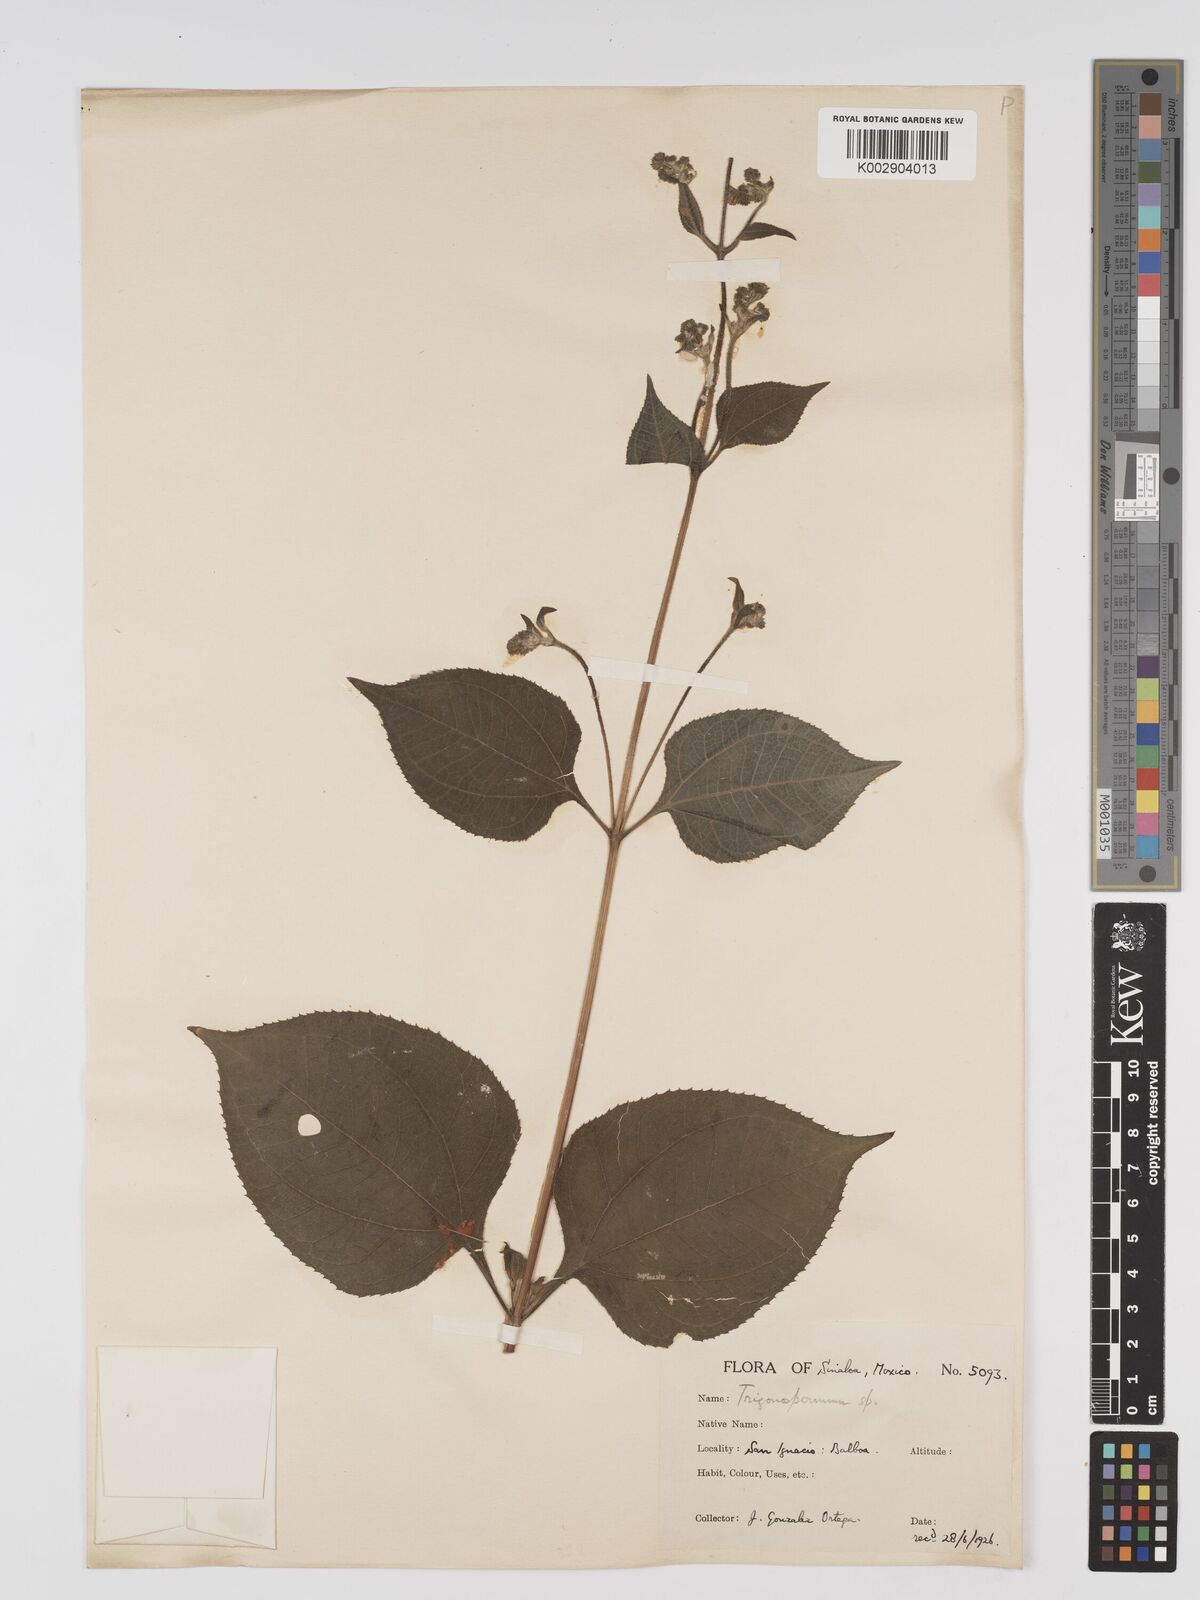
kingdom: Plantae
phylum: Tracheophyta
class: Magnoliopsida
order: Asterales
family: Asteraceae
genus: Trigonospermum
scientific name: Trigonospermum melampodioides
